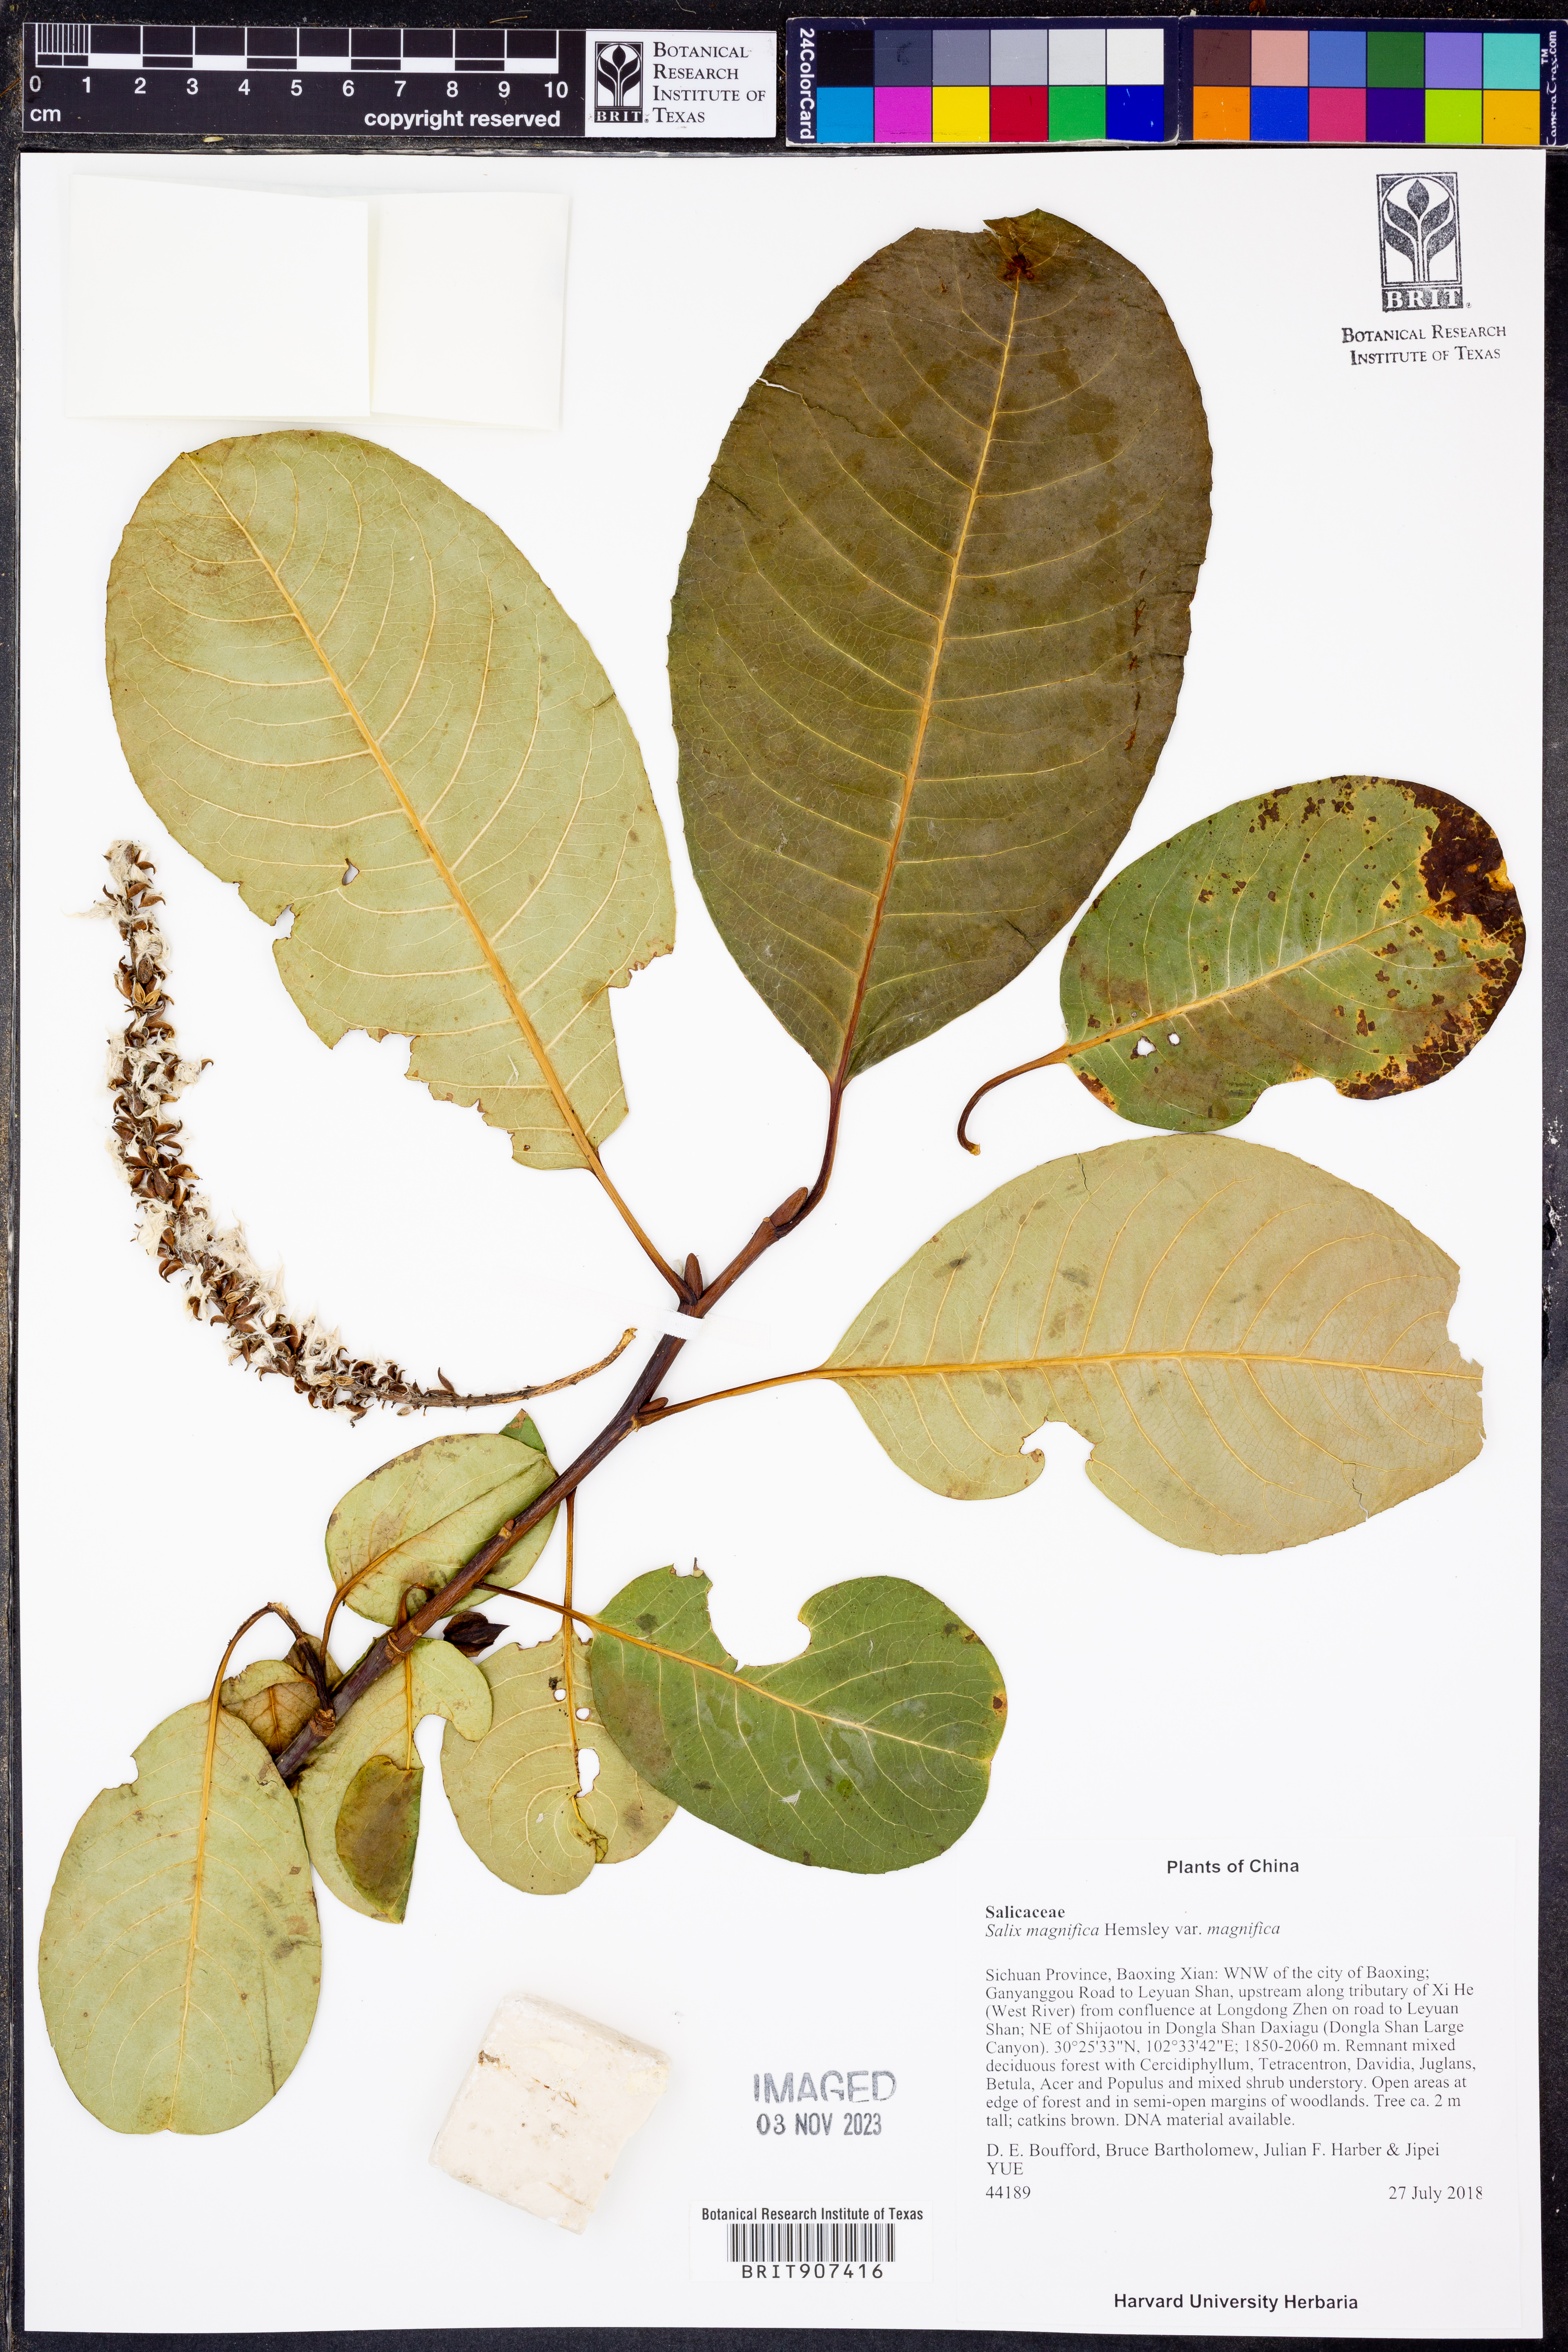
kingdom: Plantae
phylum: Tracheophyta
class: Magnoliopsida
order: Malpighiales
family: Salicaceae
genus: Salix
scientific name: Salix magnifica
